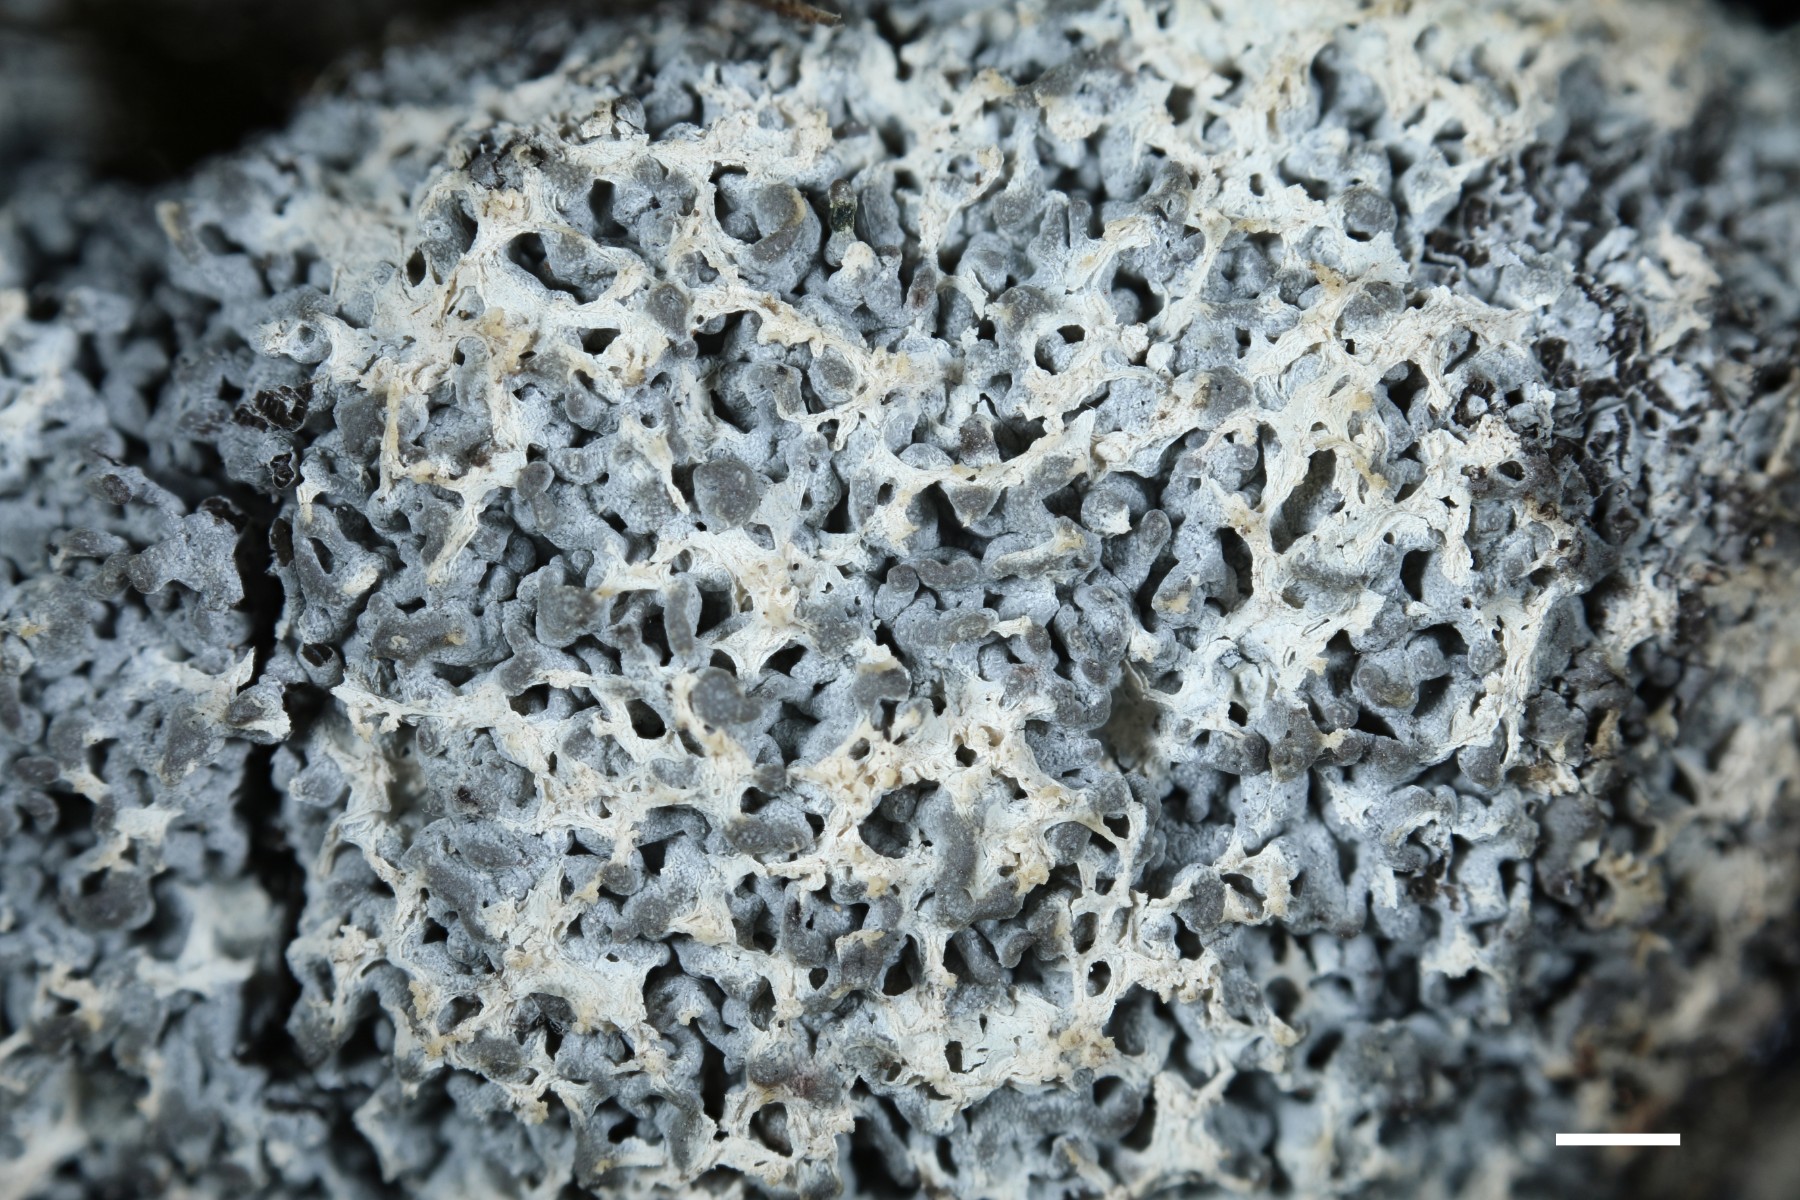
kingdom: Protozoa
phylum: Mycetozoa
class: Myxomycetes
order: Physarales
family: Physaraceae
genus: Fuligo
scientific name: Fuligo septica
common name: Dog vomit slime mold
